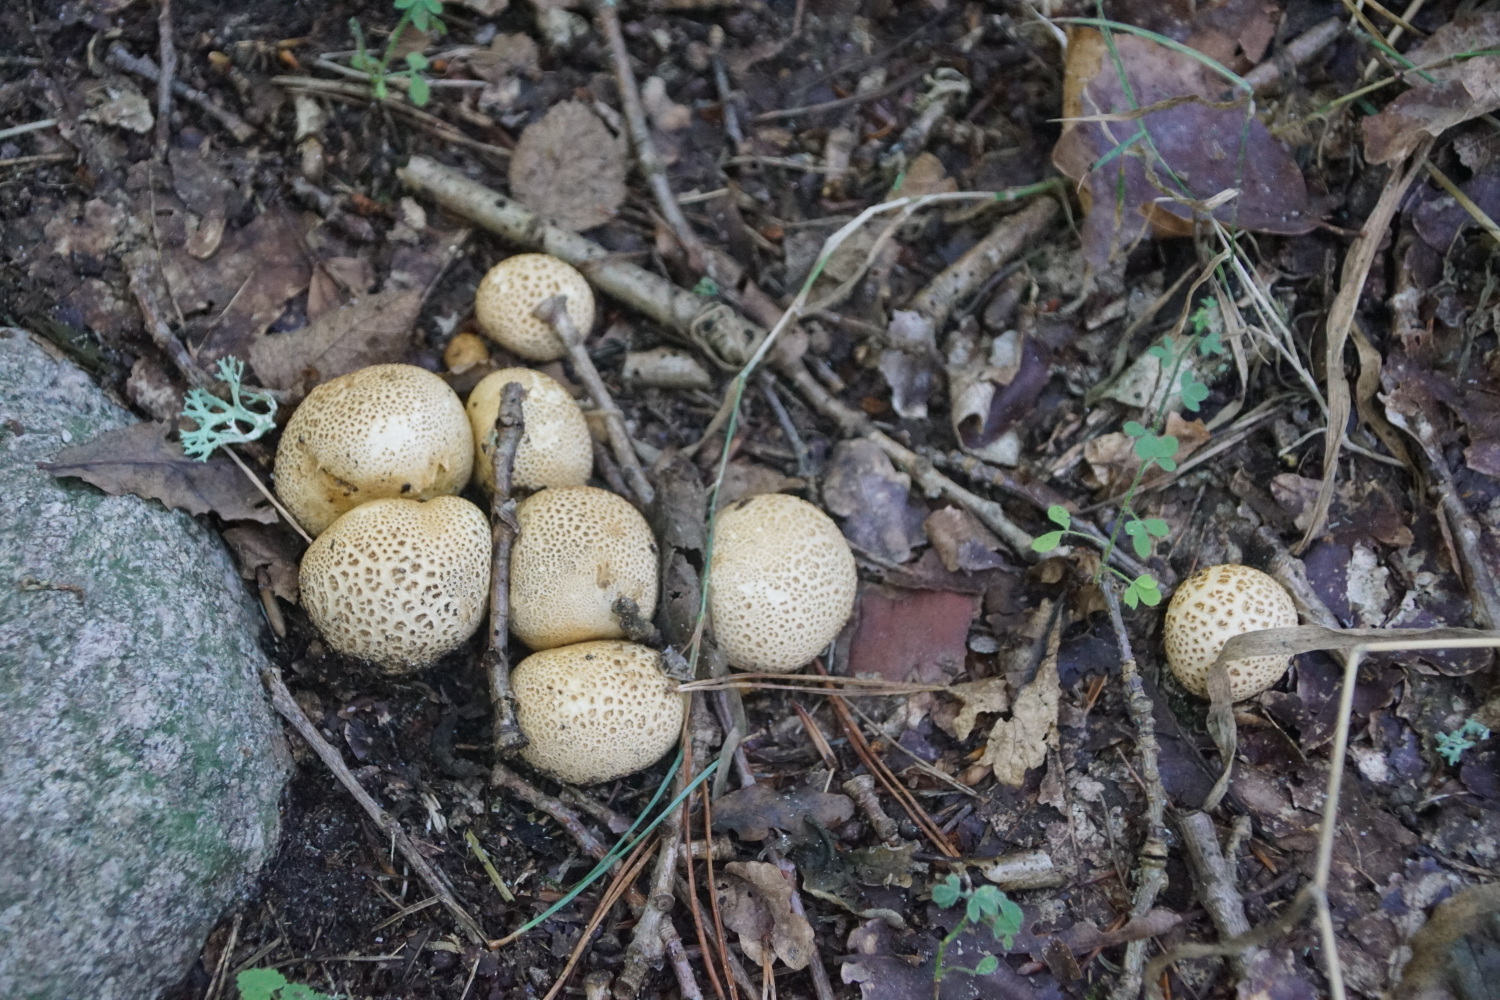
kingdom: Fungi
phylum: Basidiomycota
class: Agaricomycetes
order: Boletales
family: Sclerodermataceae
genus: Scleroderma
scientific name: Scleroderma citrinum
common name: almindelig bruskbold
